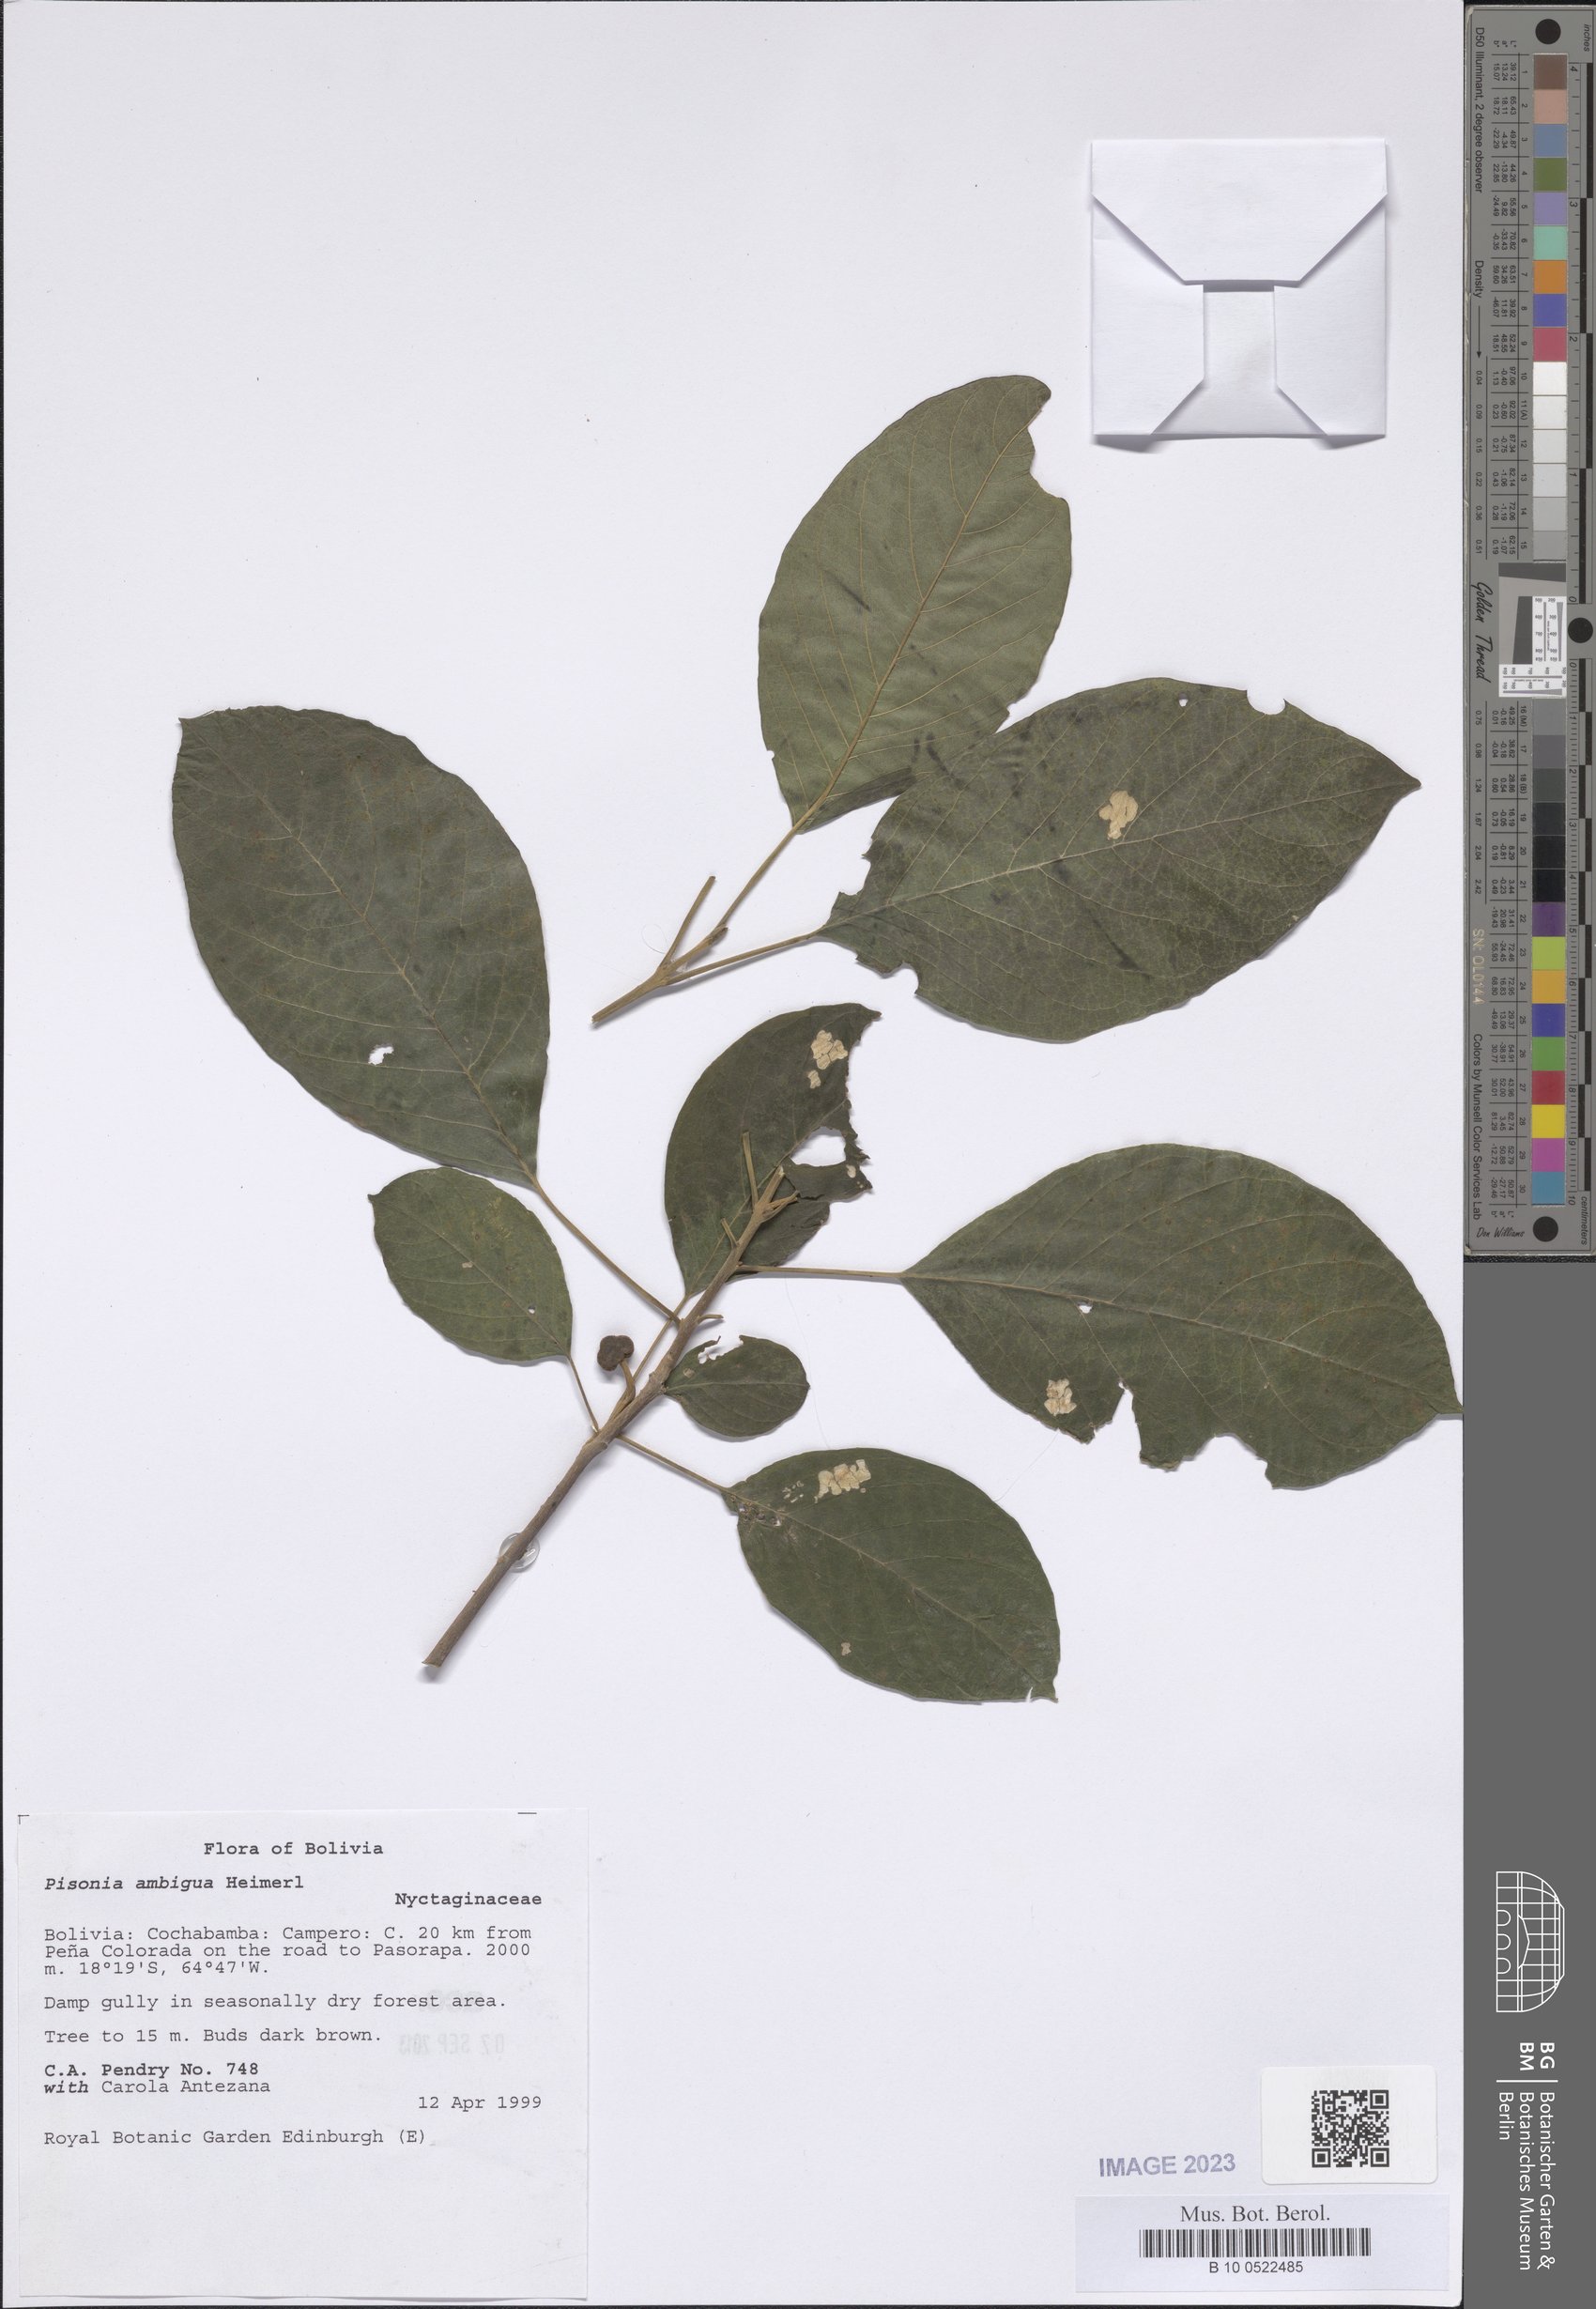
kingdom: Plantae
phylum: Tracheophyta
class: Magnoliopsida
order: Caryophyllales
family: Nyctaginaceae
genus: Pisonia
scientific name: Pisonia ambigua
